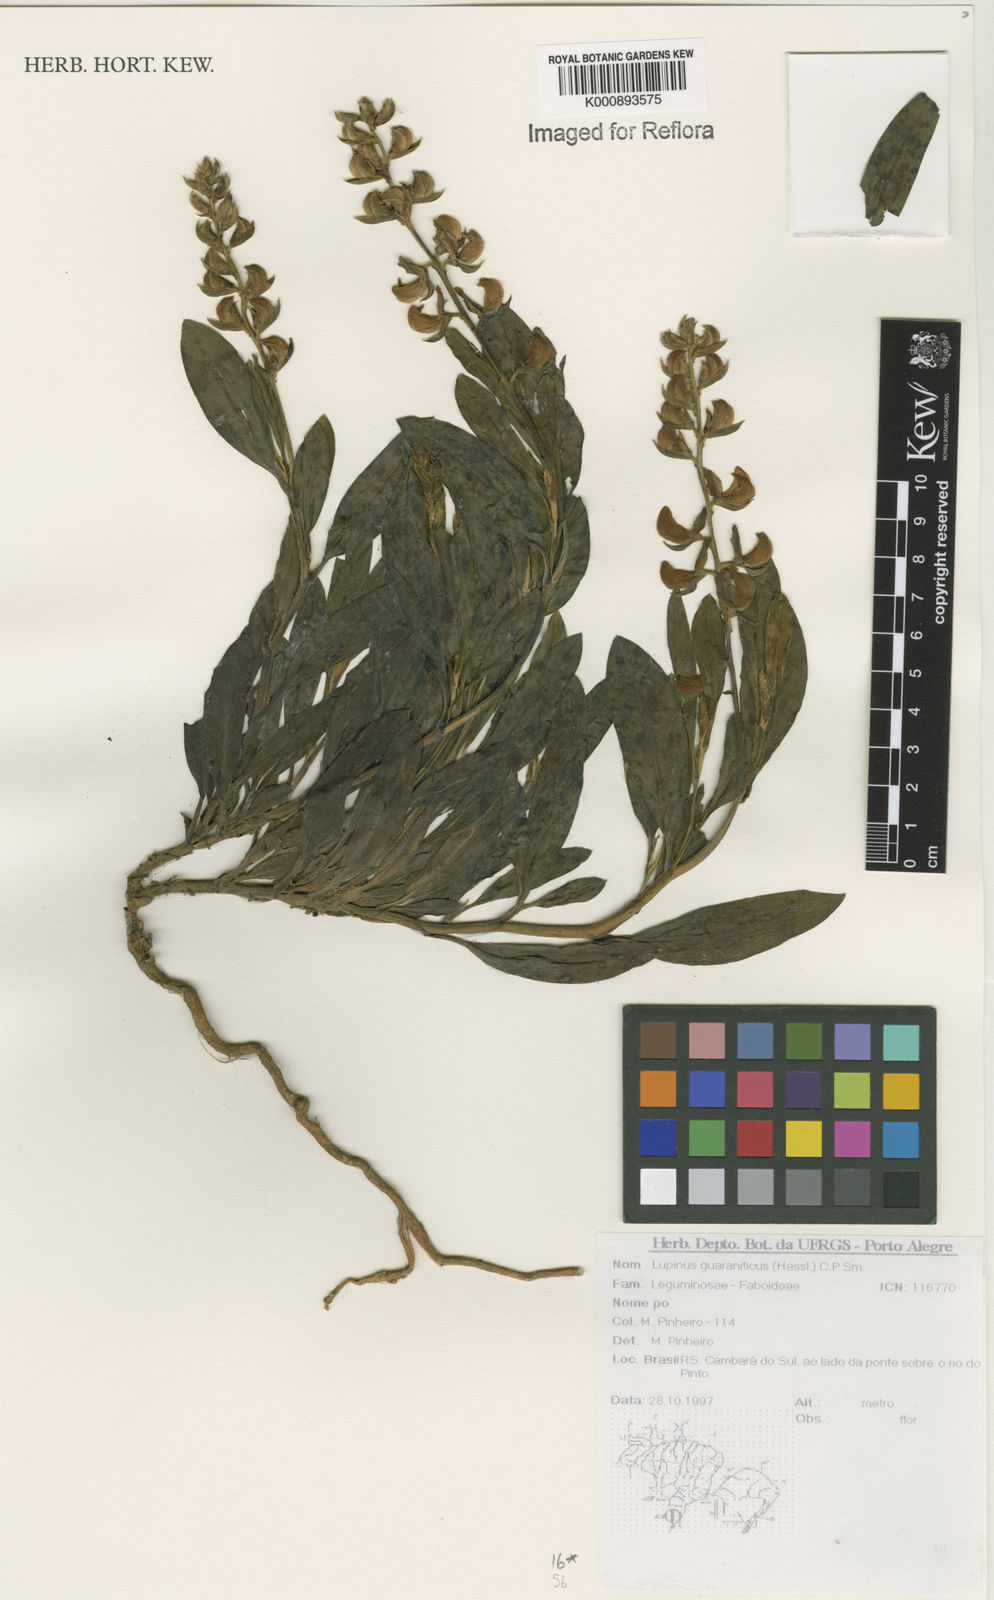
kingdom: Plantae
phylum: Tracheophyta
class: Magnoliopsida
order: Fabales
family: Fabaceae
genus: Lupinus
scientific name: Lupinus guaraniticus
